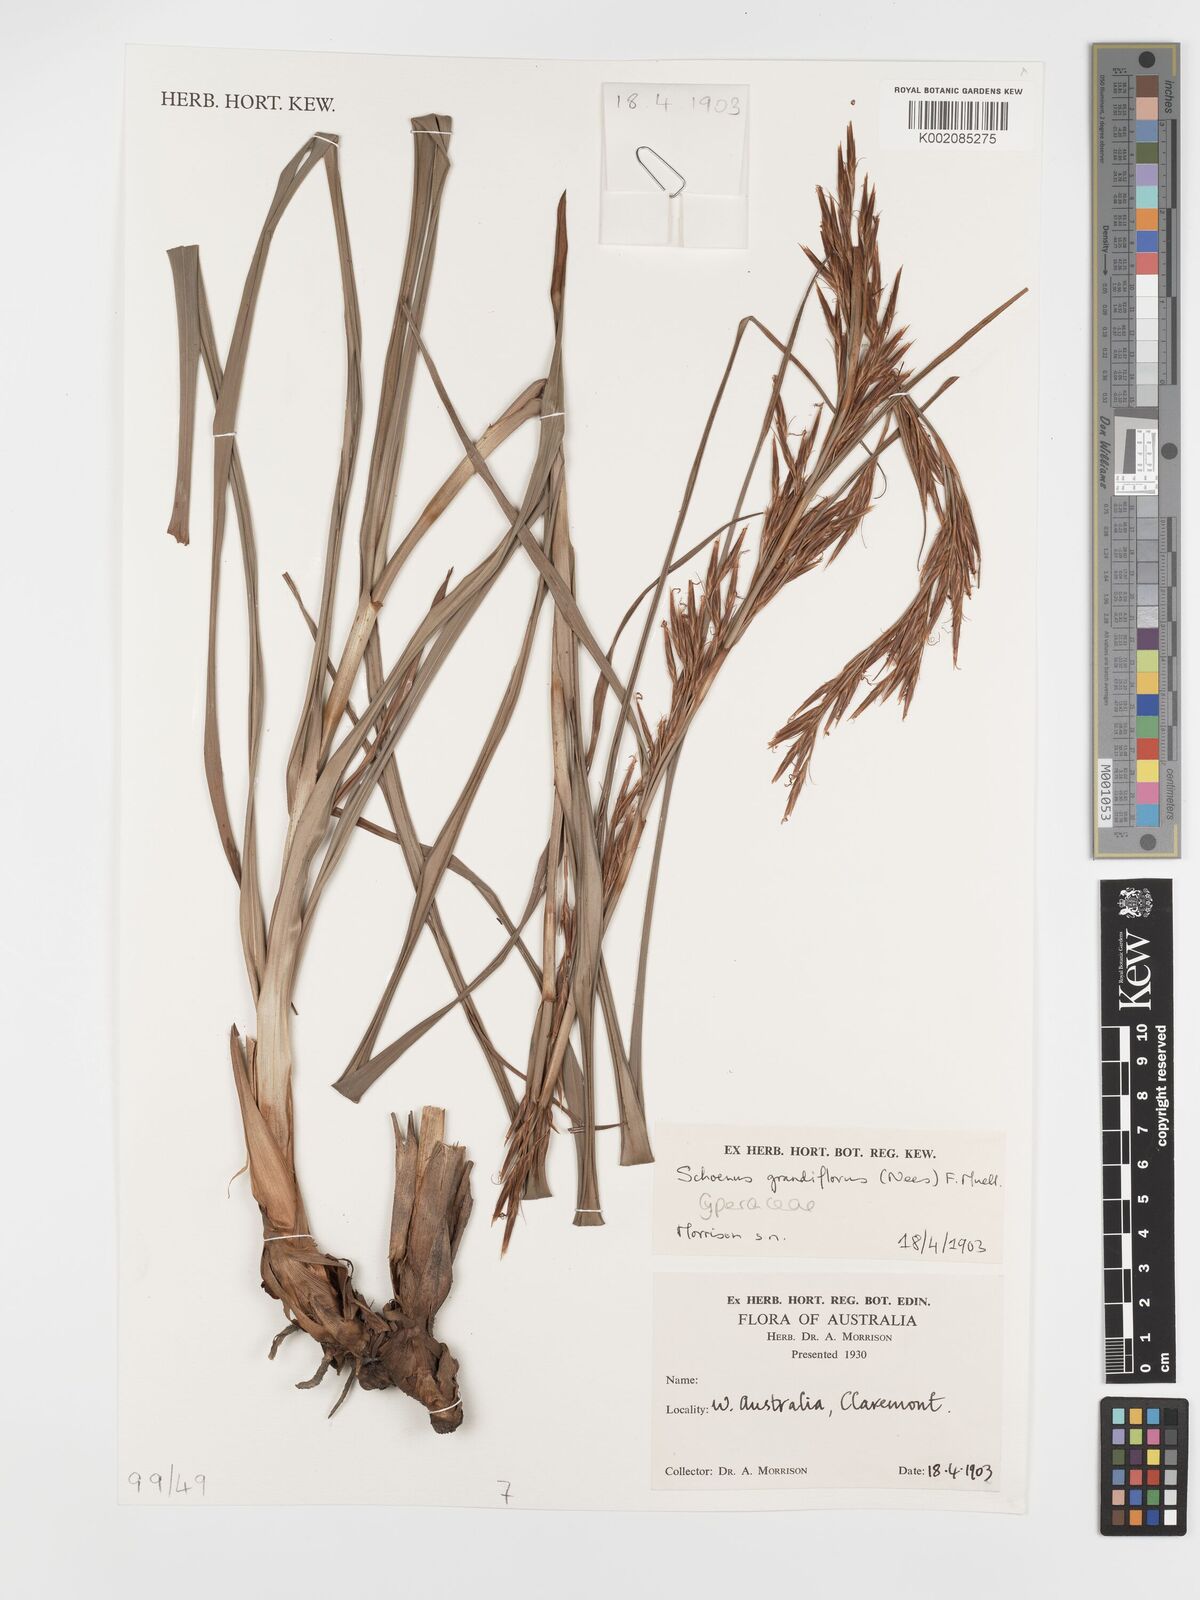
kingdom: Plantae
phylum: Tracheophyta
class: Liliopsida
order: Poales
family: Cyperaceae
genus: Schoenus
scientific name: Schoenus grandiflorus
